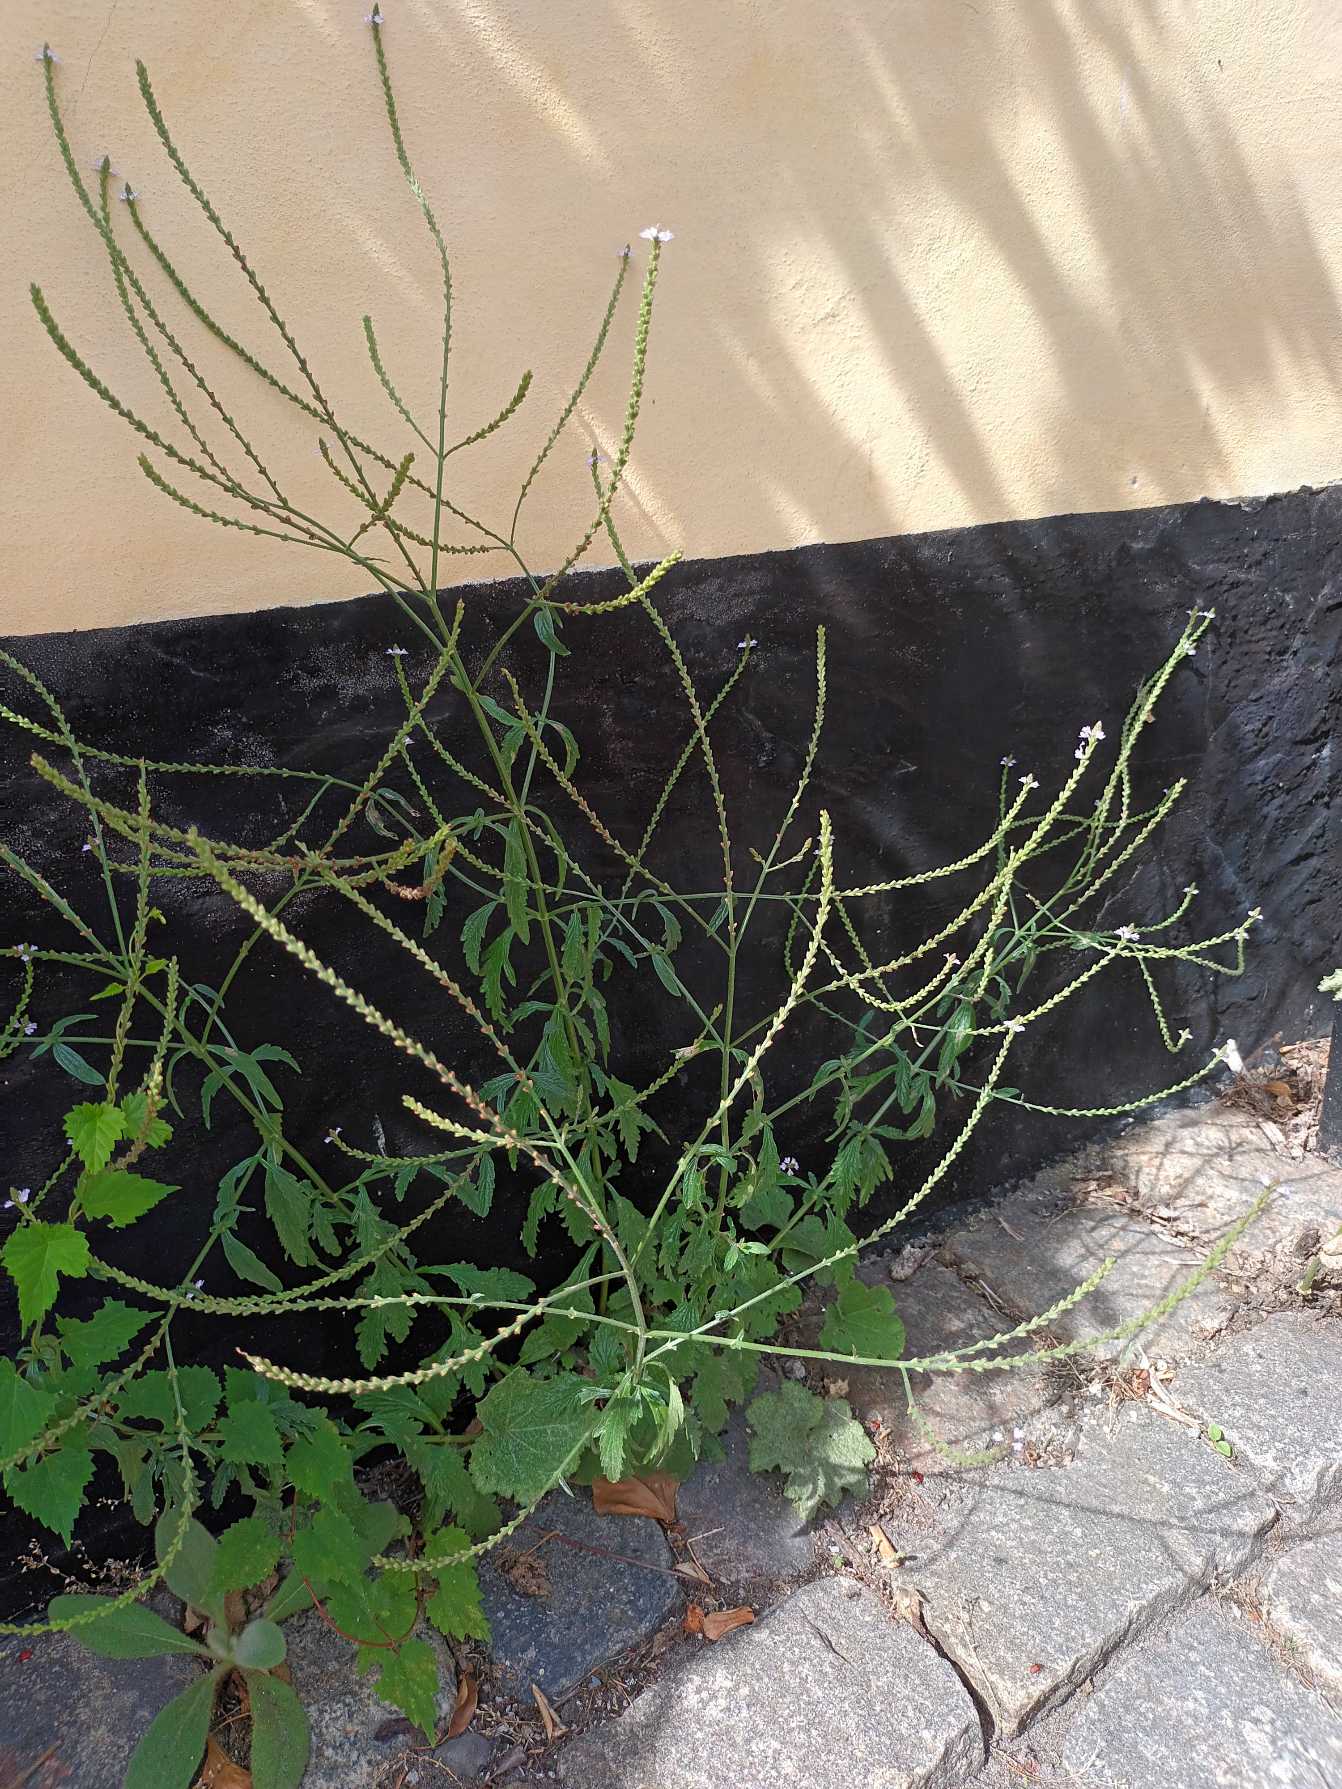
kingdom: Plantae
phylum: Tracheophyta
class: Magnoliopsida
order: Lamiales
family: Verbenaceae
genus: Verbena
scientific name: Verbena officinalis
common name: Læge-jernurt
